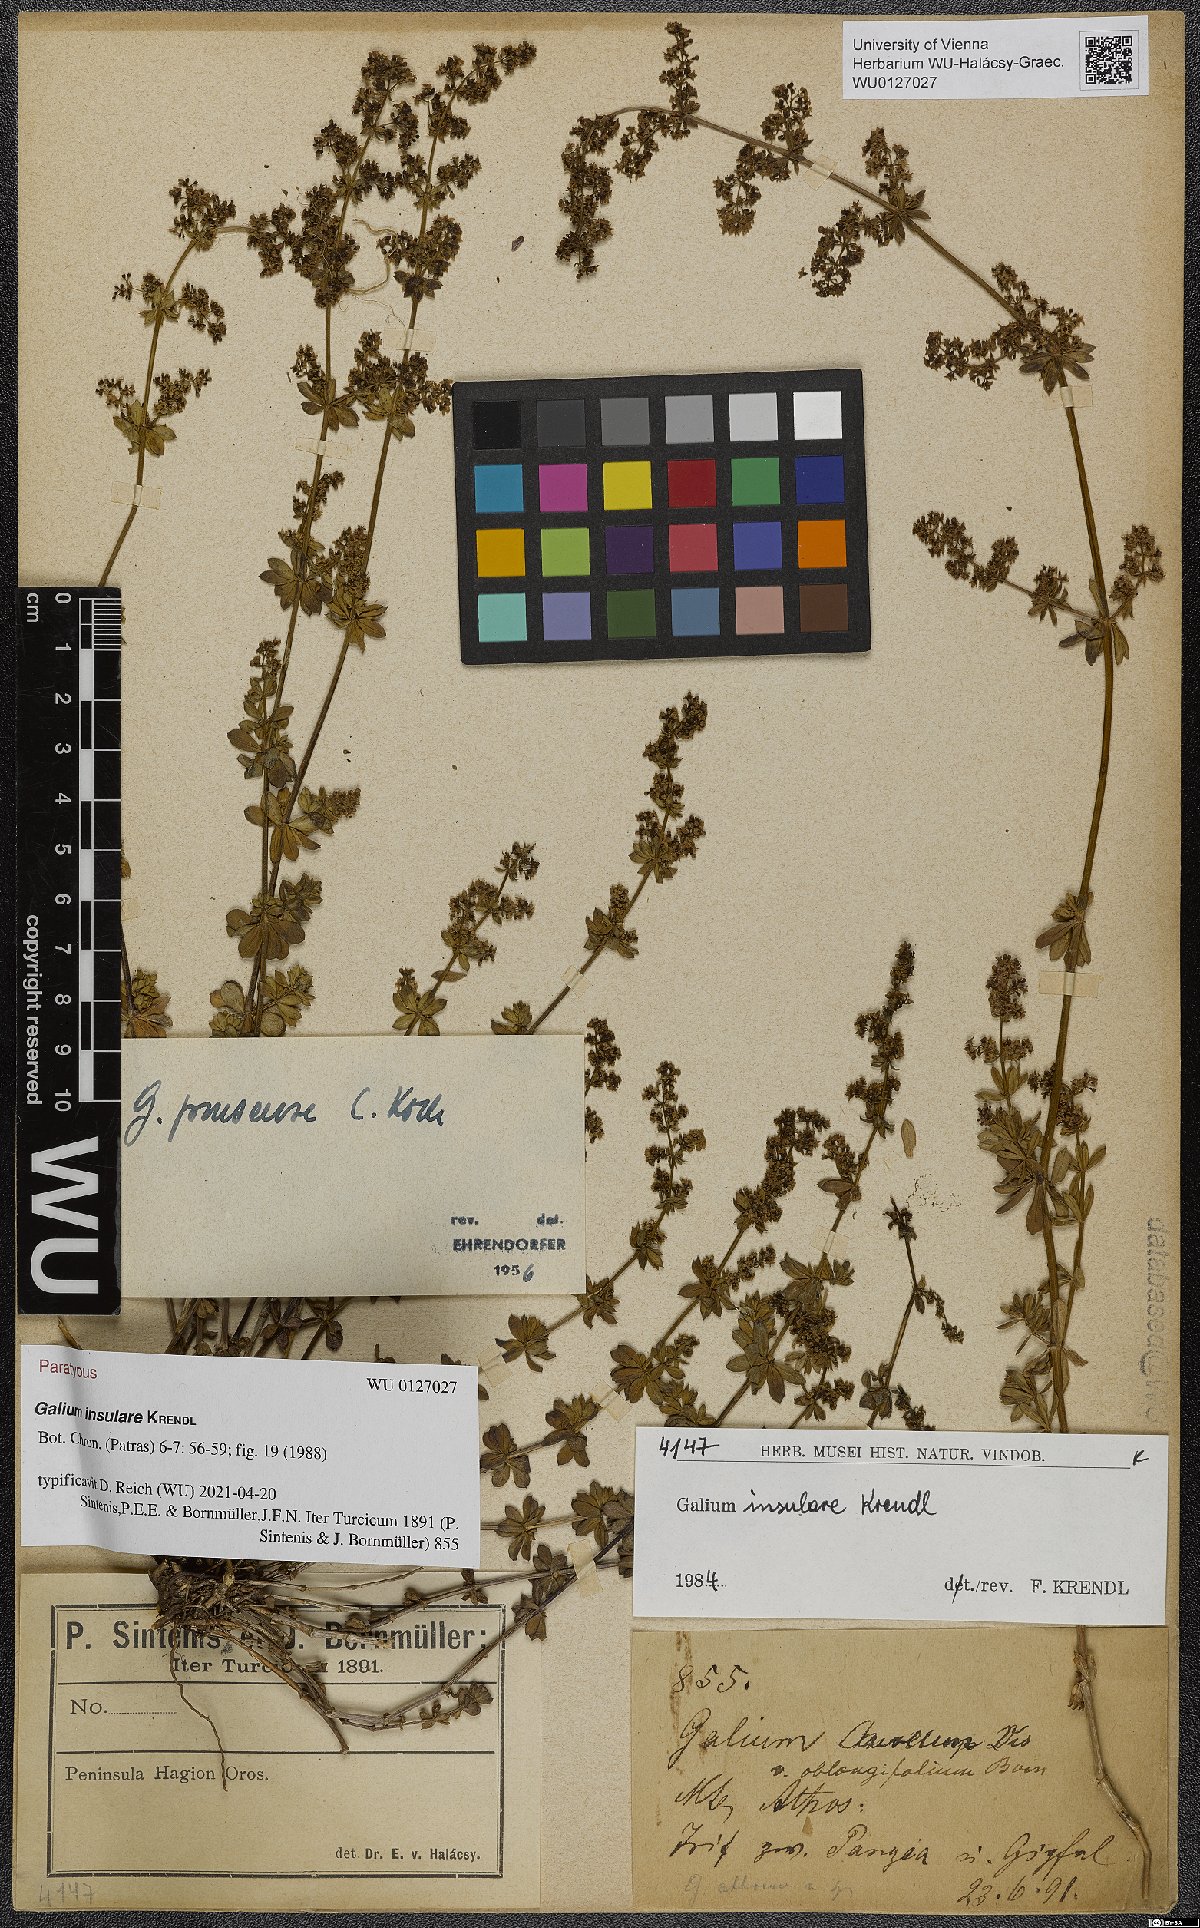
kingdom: Plantae
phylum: Tracheophyta
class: Magnoliopsida
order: Gentianales
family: Rubiaceae
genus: Galium
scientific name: Galium insulare
